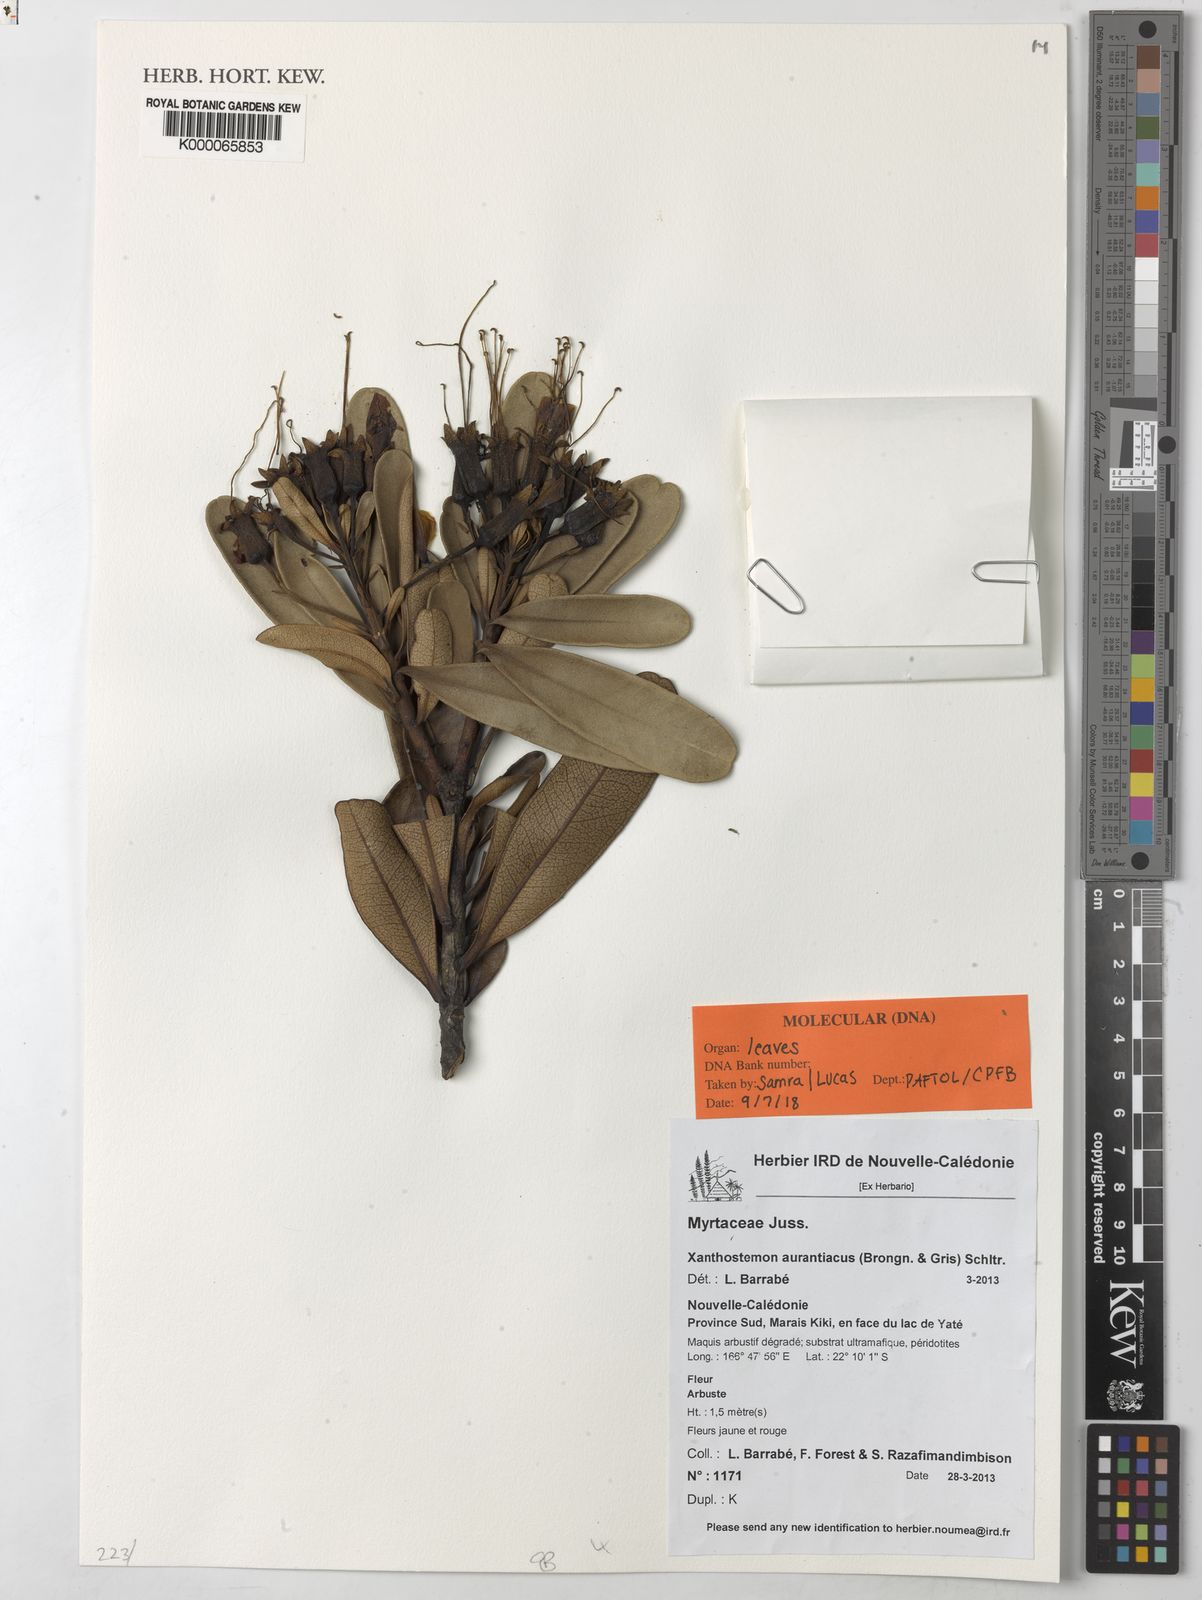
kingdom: Plantae
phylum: Tracheophyta
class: Magnoliopsida
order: Myrtales
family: Myrtaceae
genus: Xanthostemon
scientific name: Xanthostemon aurantiacus
